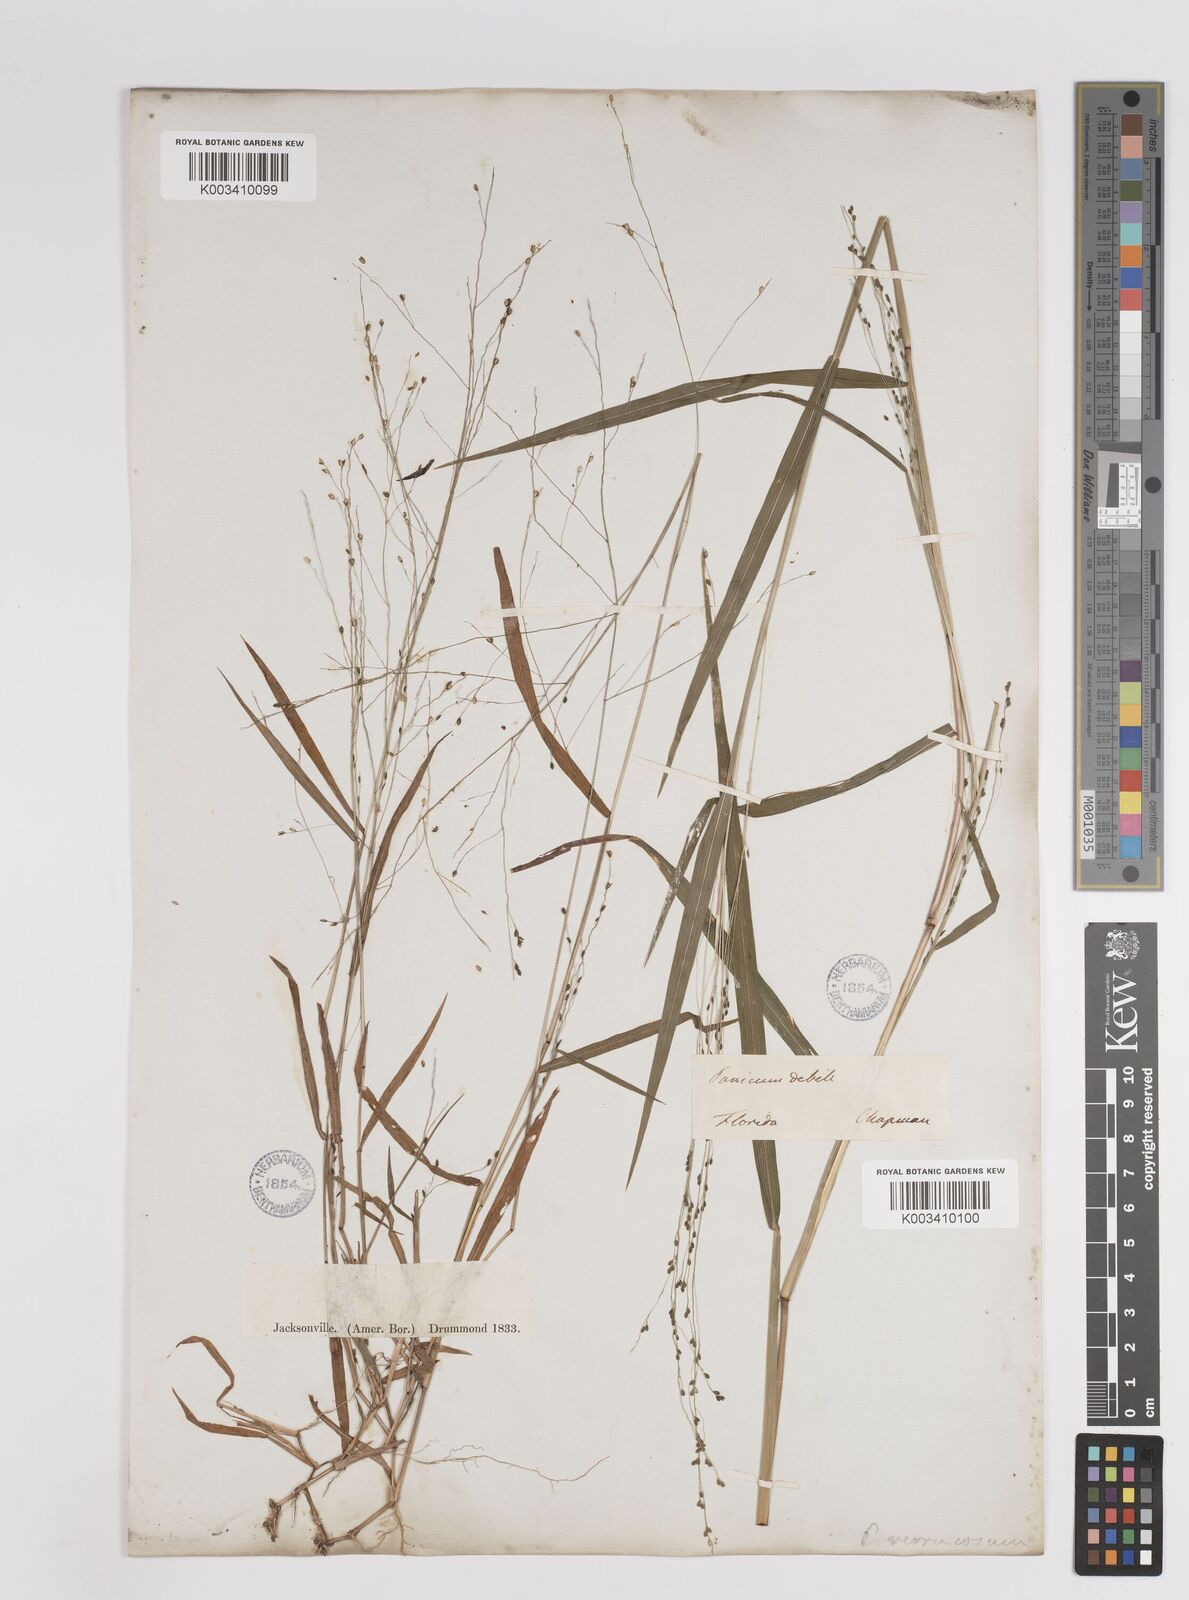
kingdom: Plantae
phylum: Tracheophyta
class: Liliopsida
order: Poales
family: Poaceae
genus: Kellochloa
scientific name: Kellochloa verrucosa
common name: Warty panic grass
